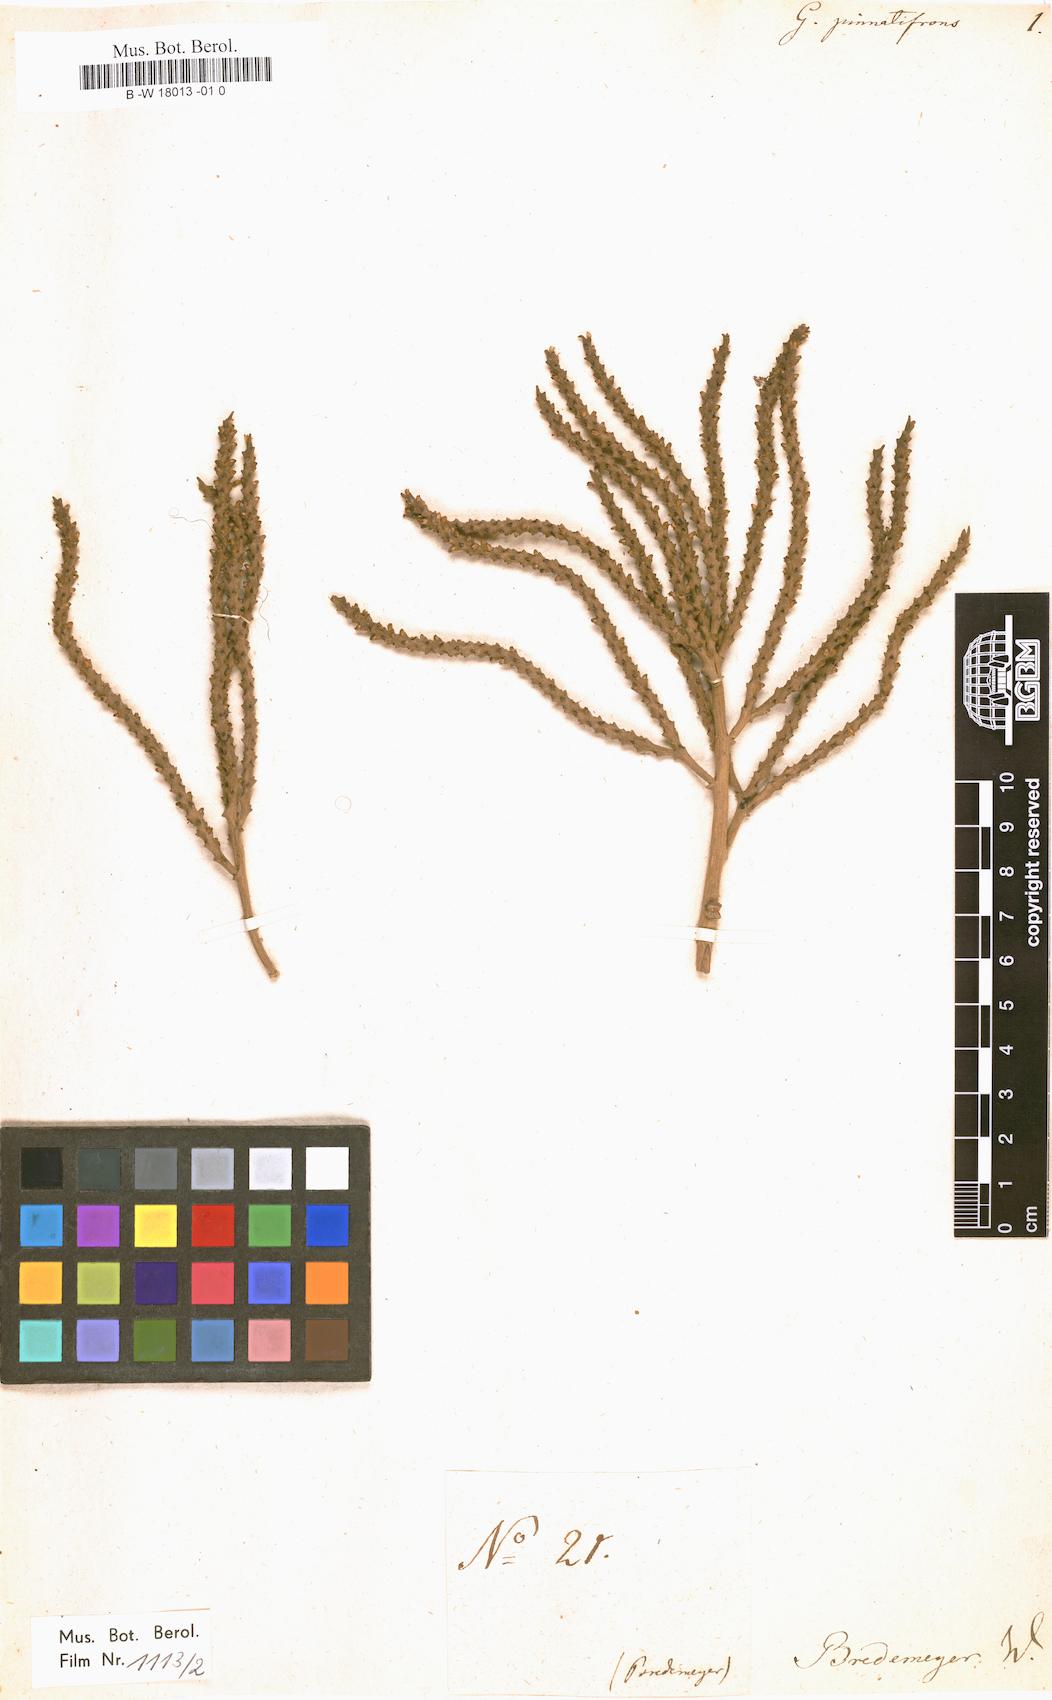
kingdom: Plantae
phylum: Tracheophyta
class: Liliopsida
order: Arecales
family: Arecaceae
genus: Geonoma
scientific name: Geonoma pinnatifrons
